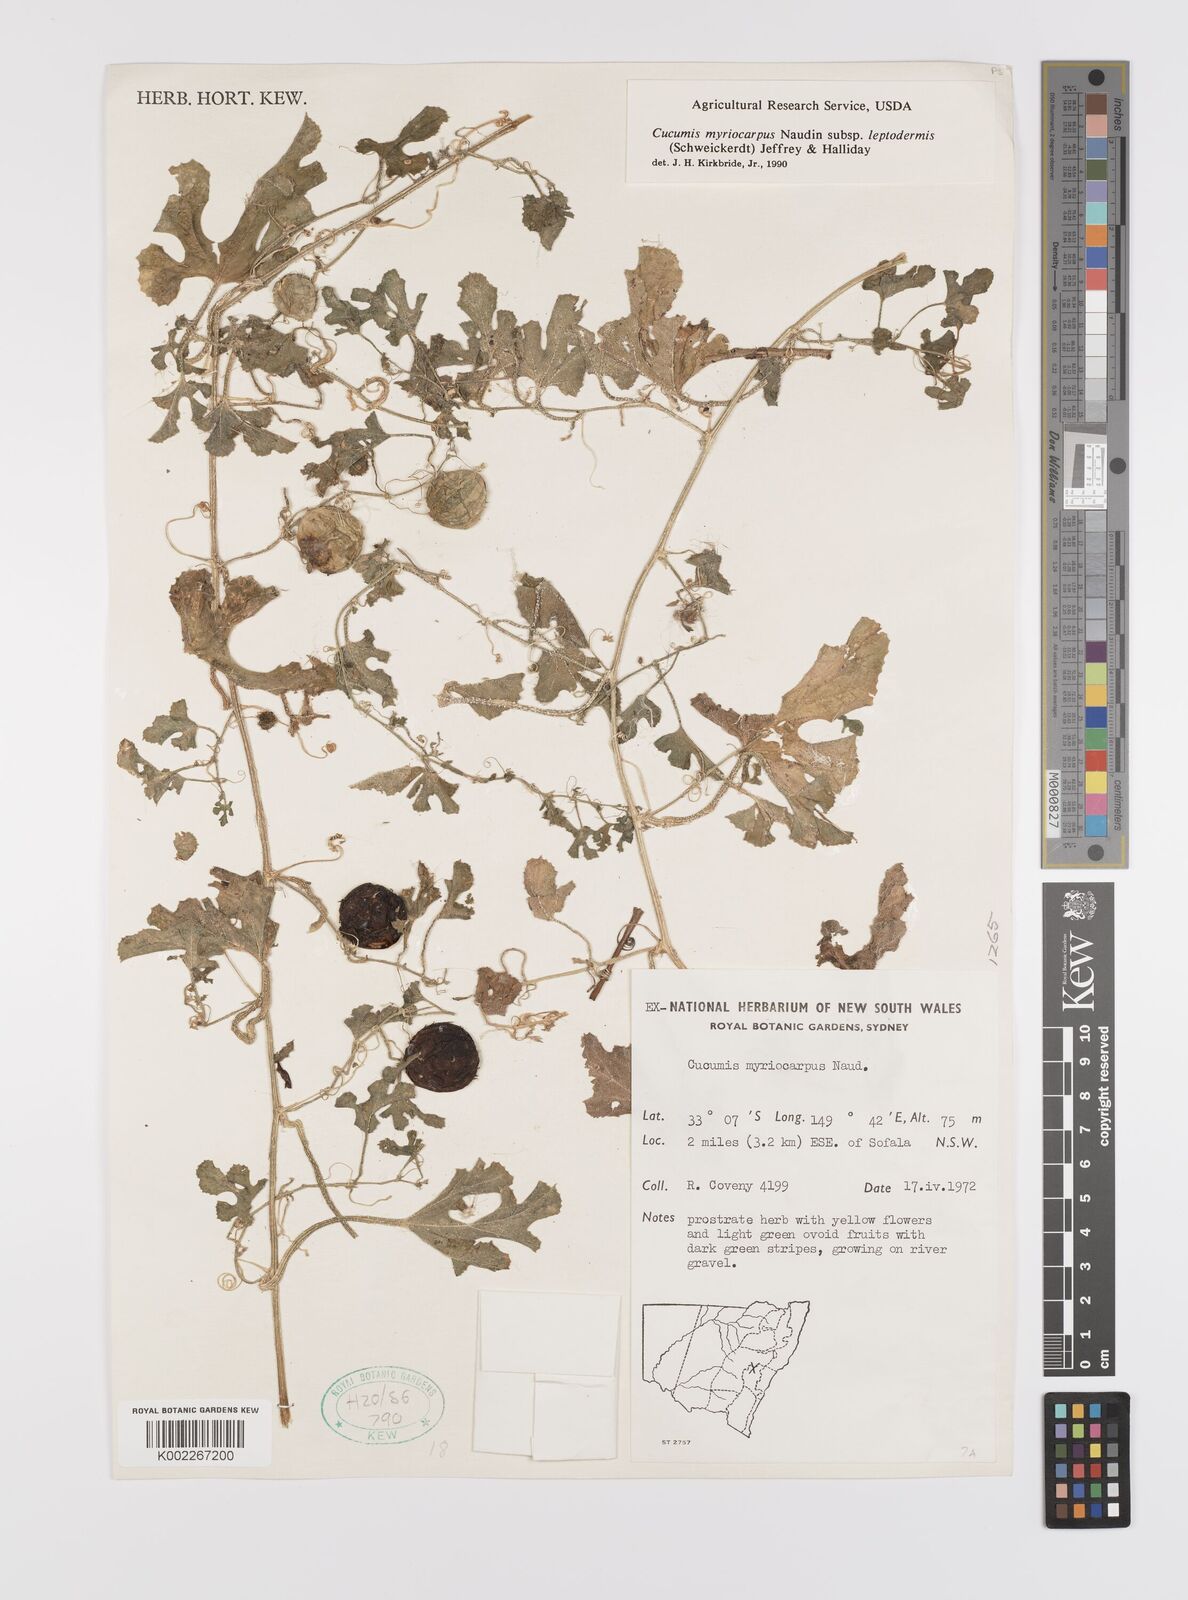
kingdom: Plantae
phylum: Tracheophyta
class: Magnoliopsida
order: Cucurbitales
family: Cucurbitaceae
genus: Cucumis
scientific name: Cucumis myriocarpus
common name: Gooseberry cucumber
